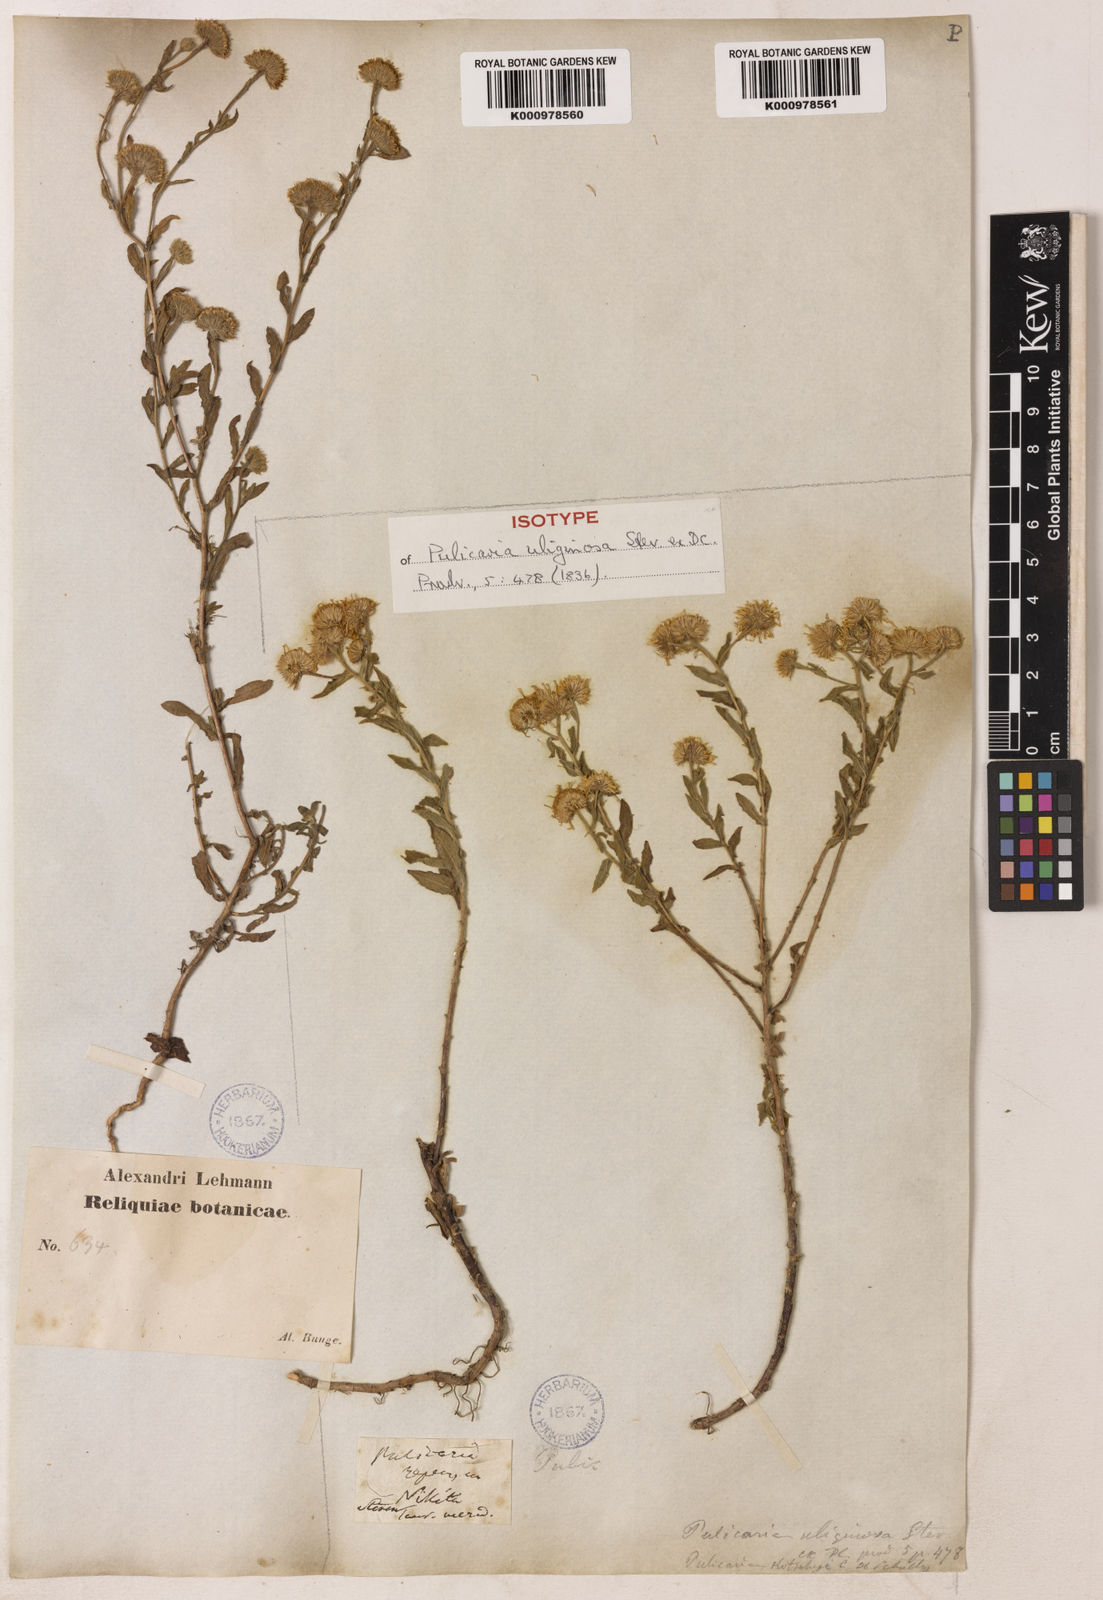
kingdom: Plantae
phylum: Tracheophyta
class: Magnoliopsida
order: Asterales
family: Asteraceae
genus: Pulicaria
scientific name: Pulicaria
